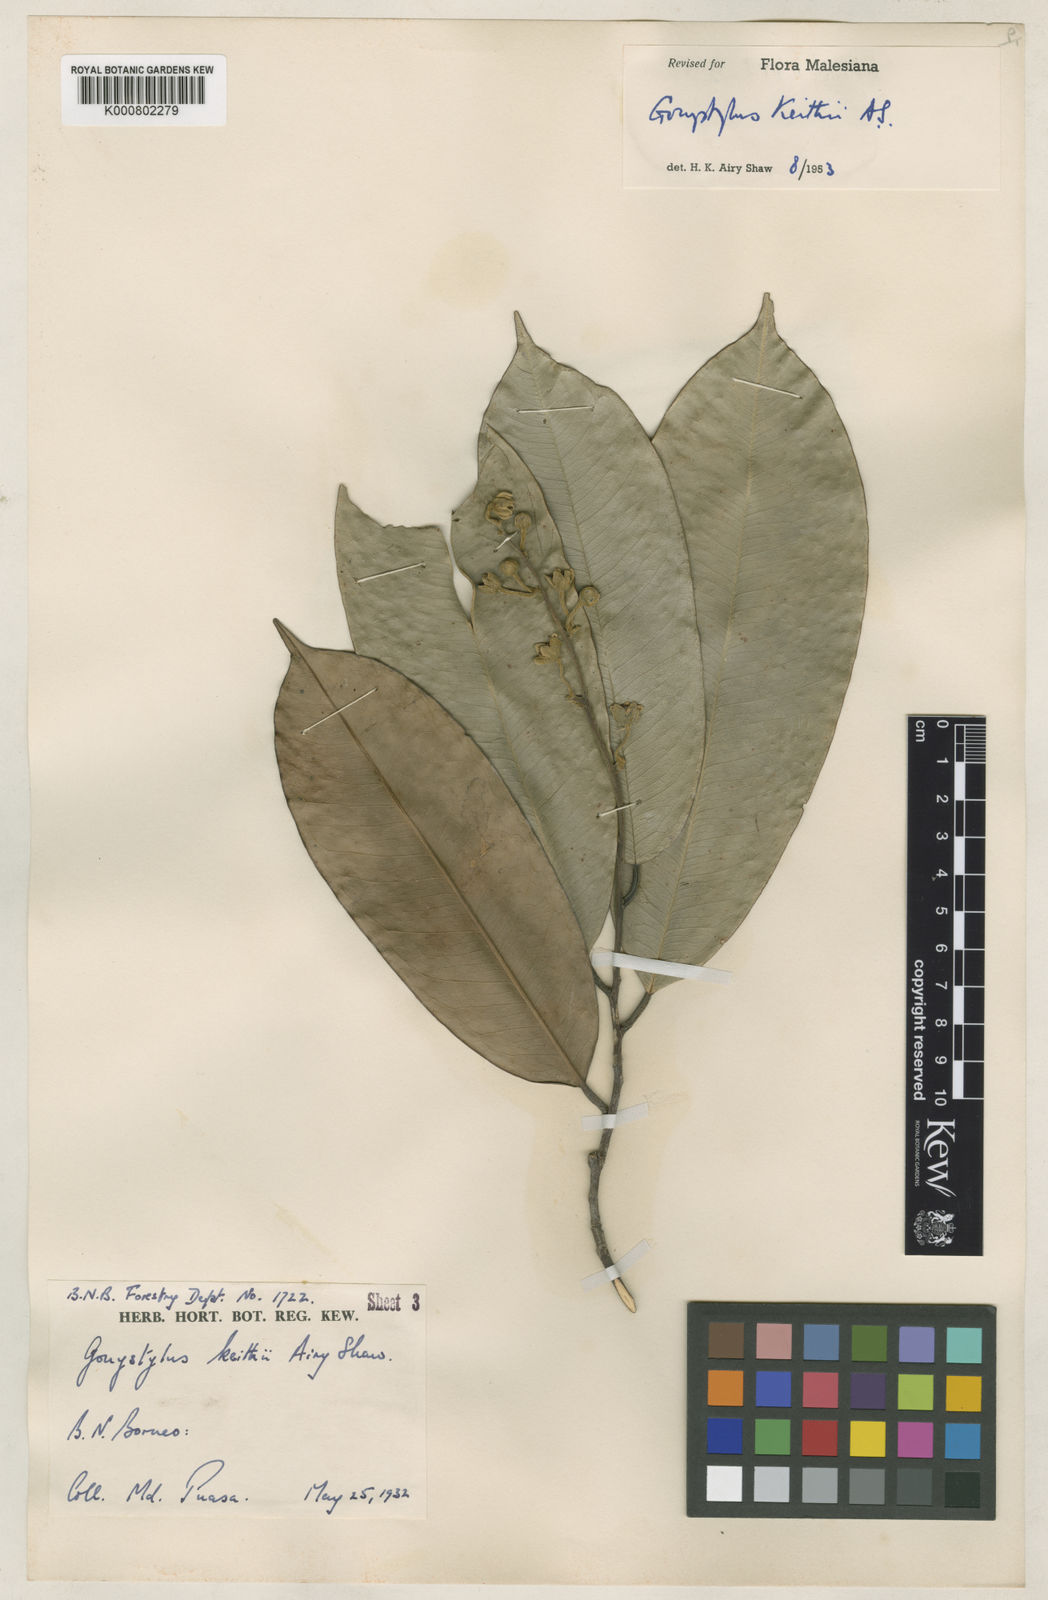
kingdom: Plantae
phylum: Tracheophyta
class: Magnoliopsida
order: Malvales
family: Thymelaeaceae
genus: Gonystylus
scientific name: Gonystylus keithii
